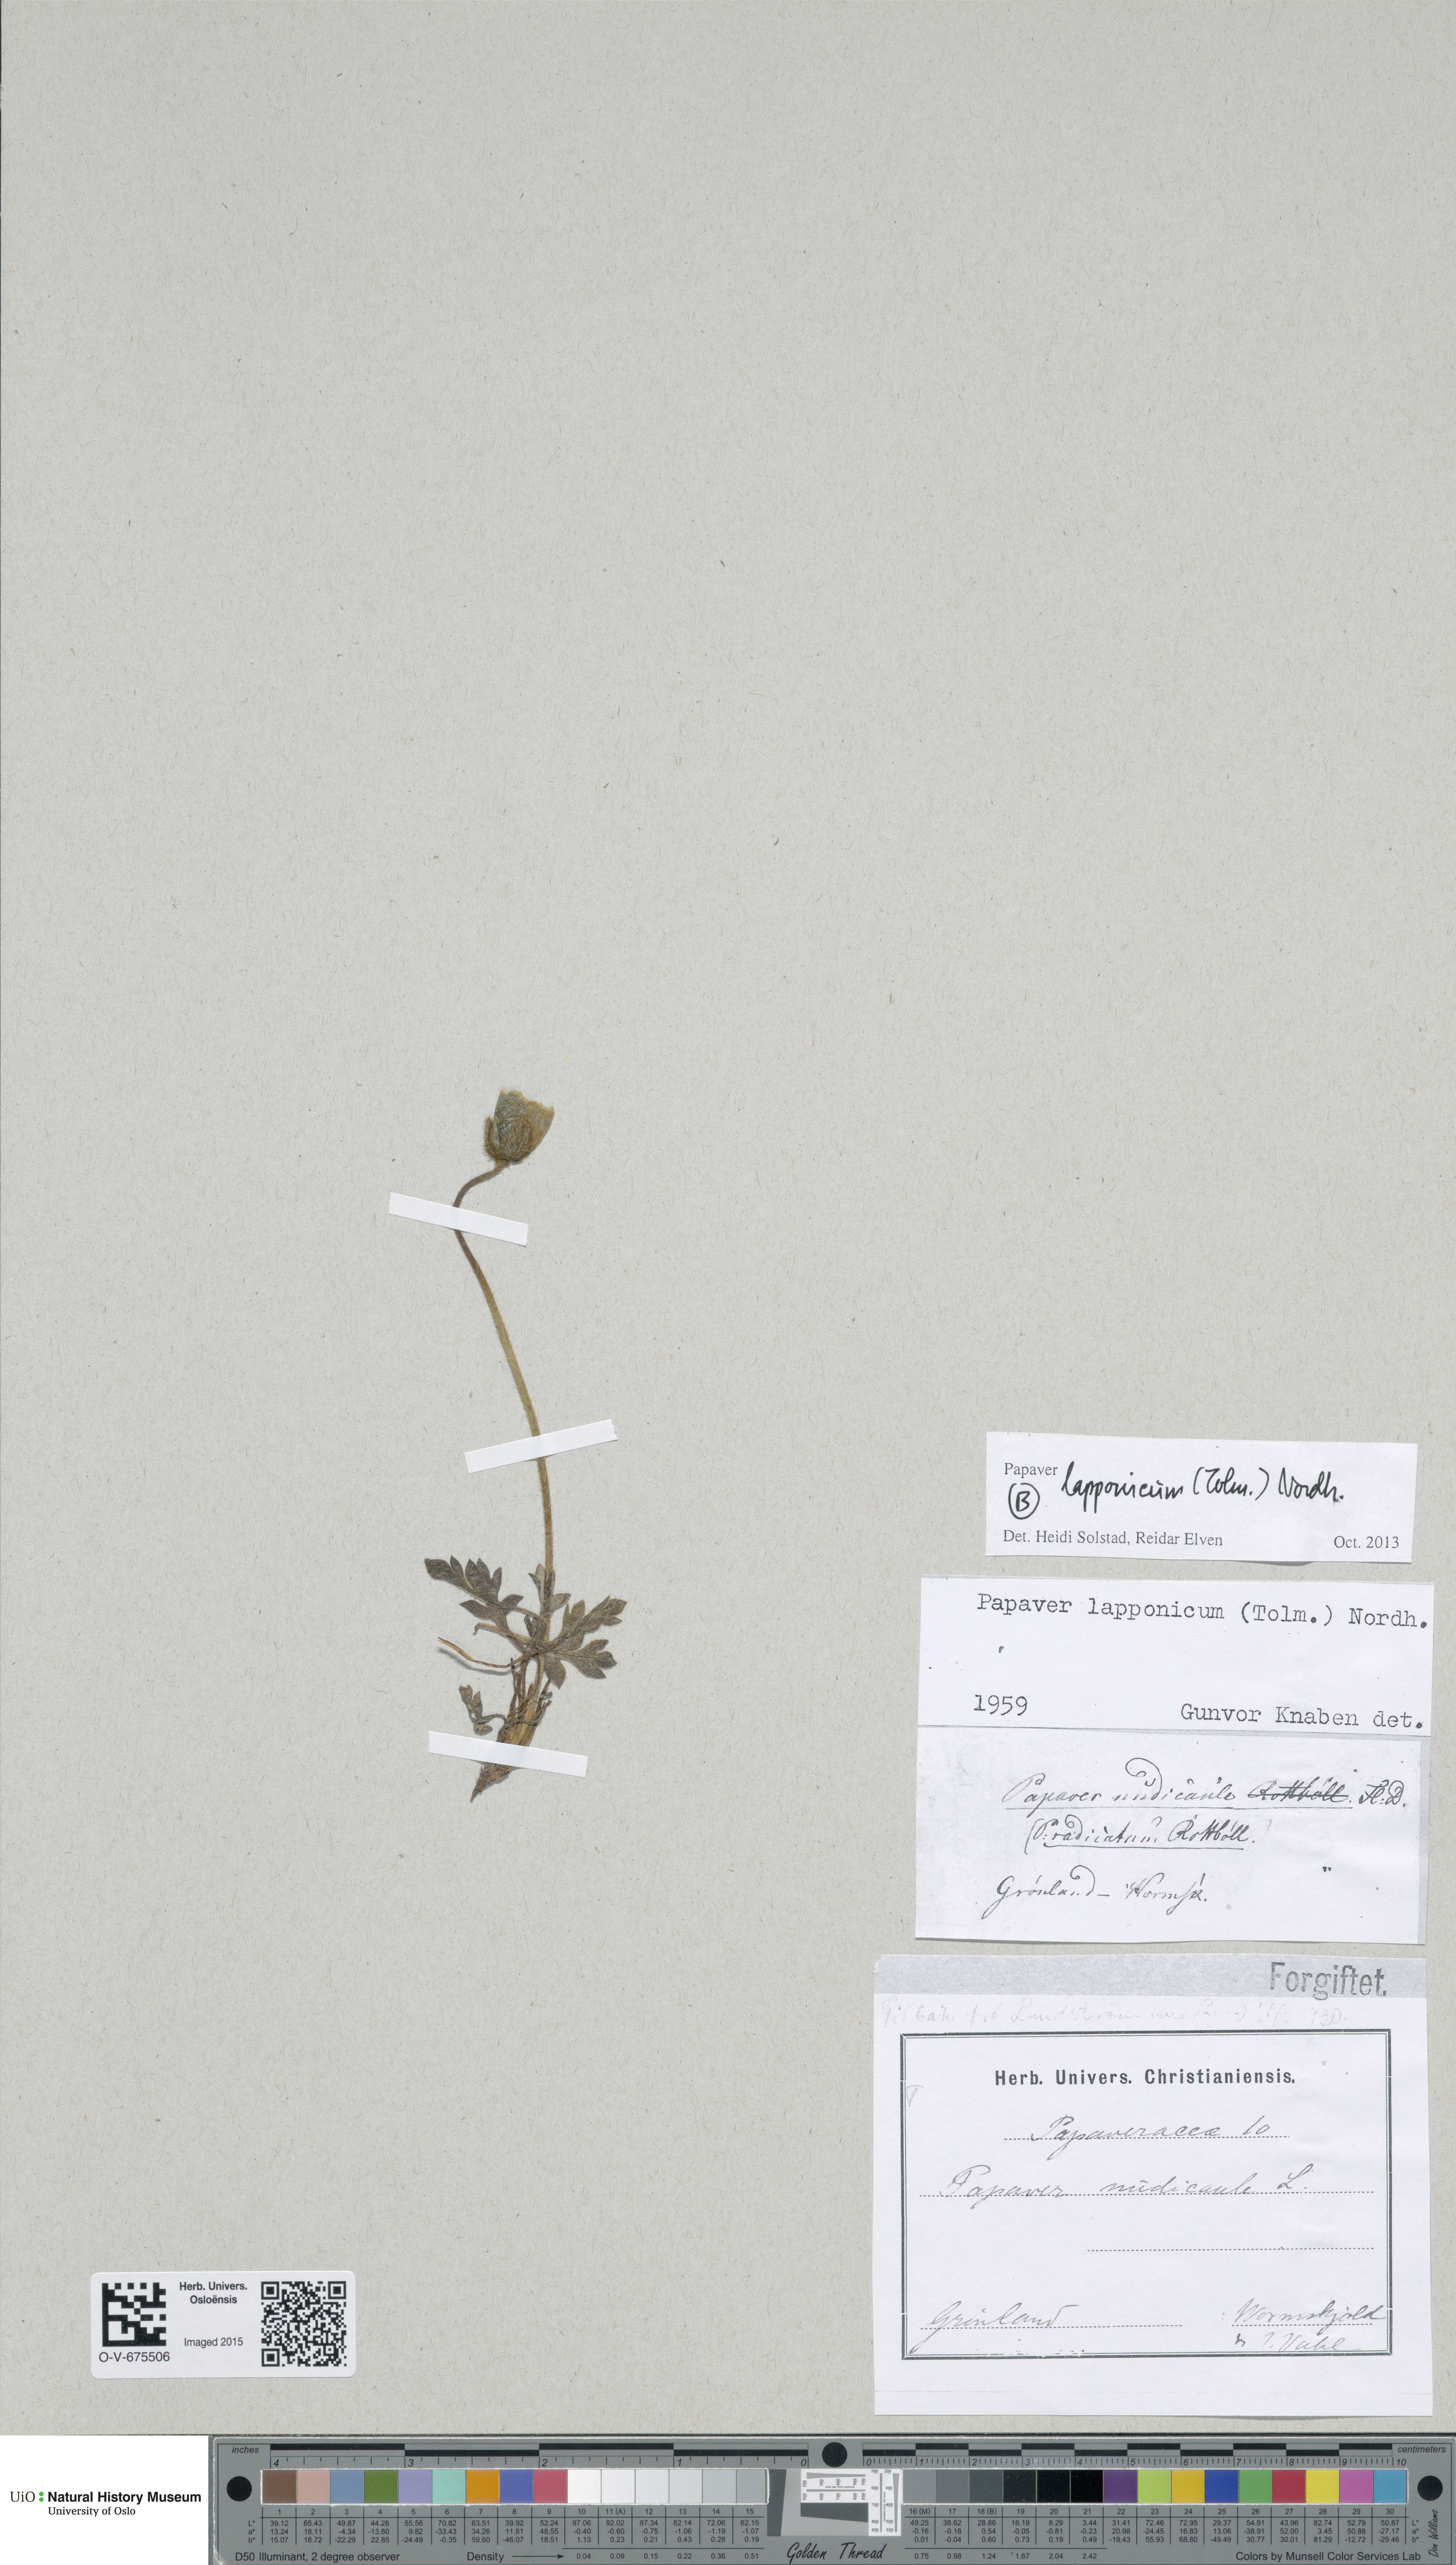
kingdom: Plantae
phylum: Tracheophyta
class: Magnoliopsida
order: Ranunculales
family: Papaveraceae
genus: Papaver
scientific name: Papaver lapponicum
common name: Lapland poppy
